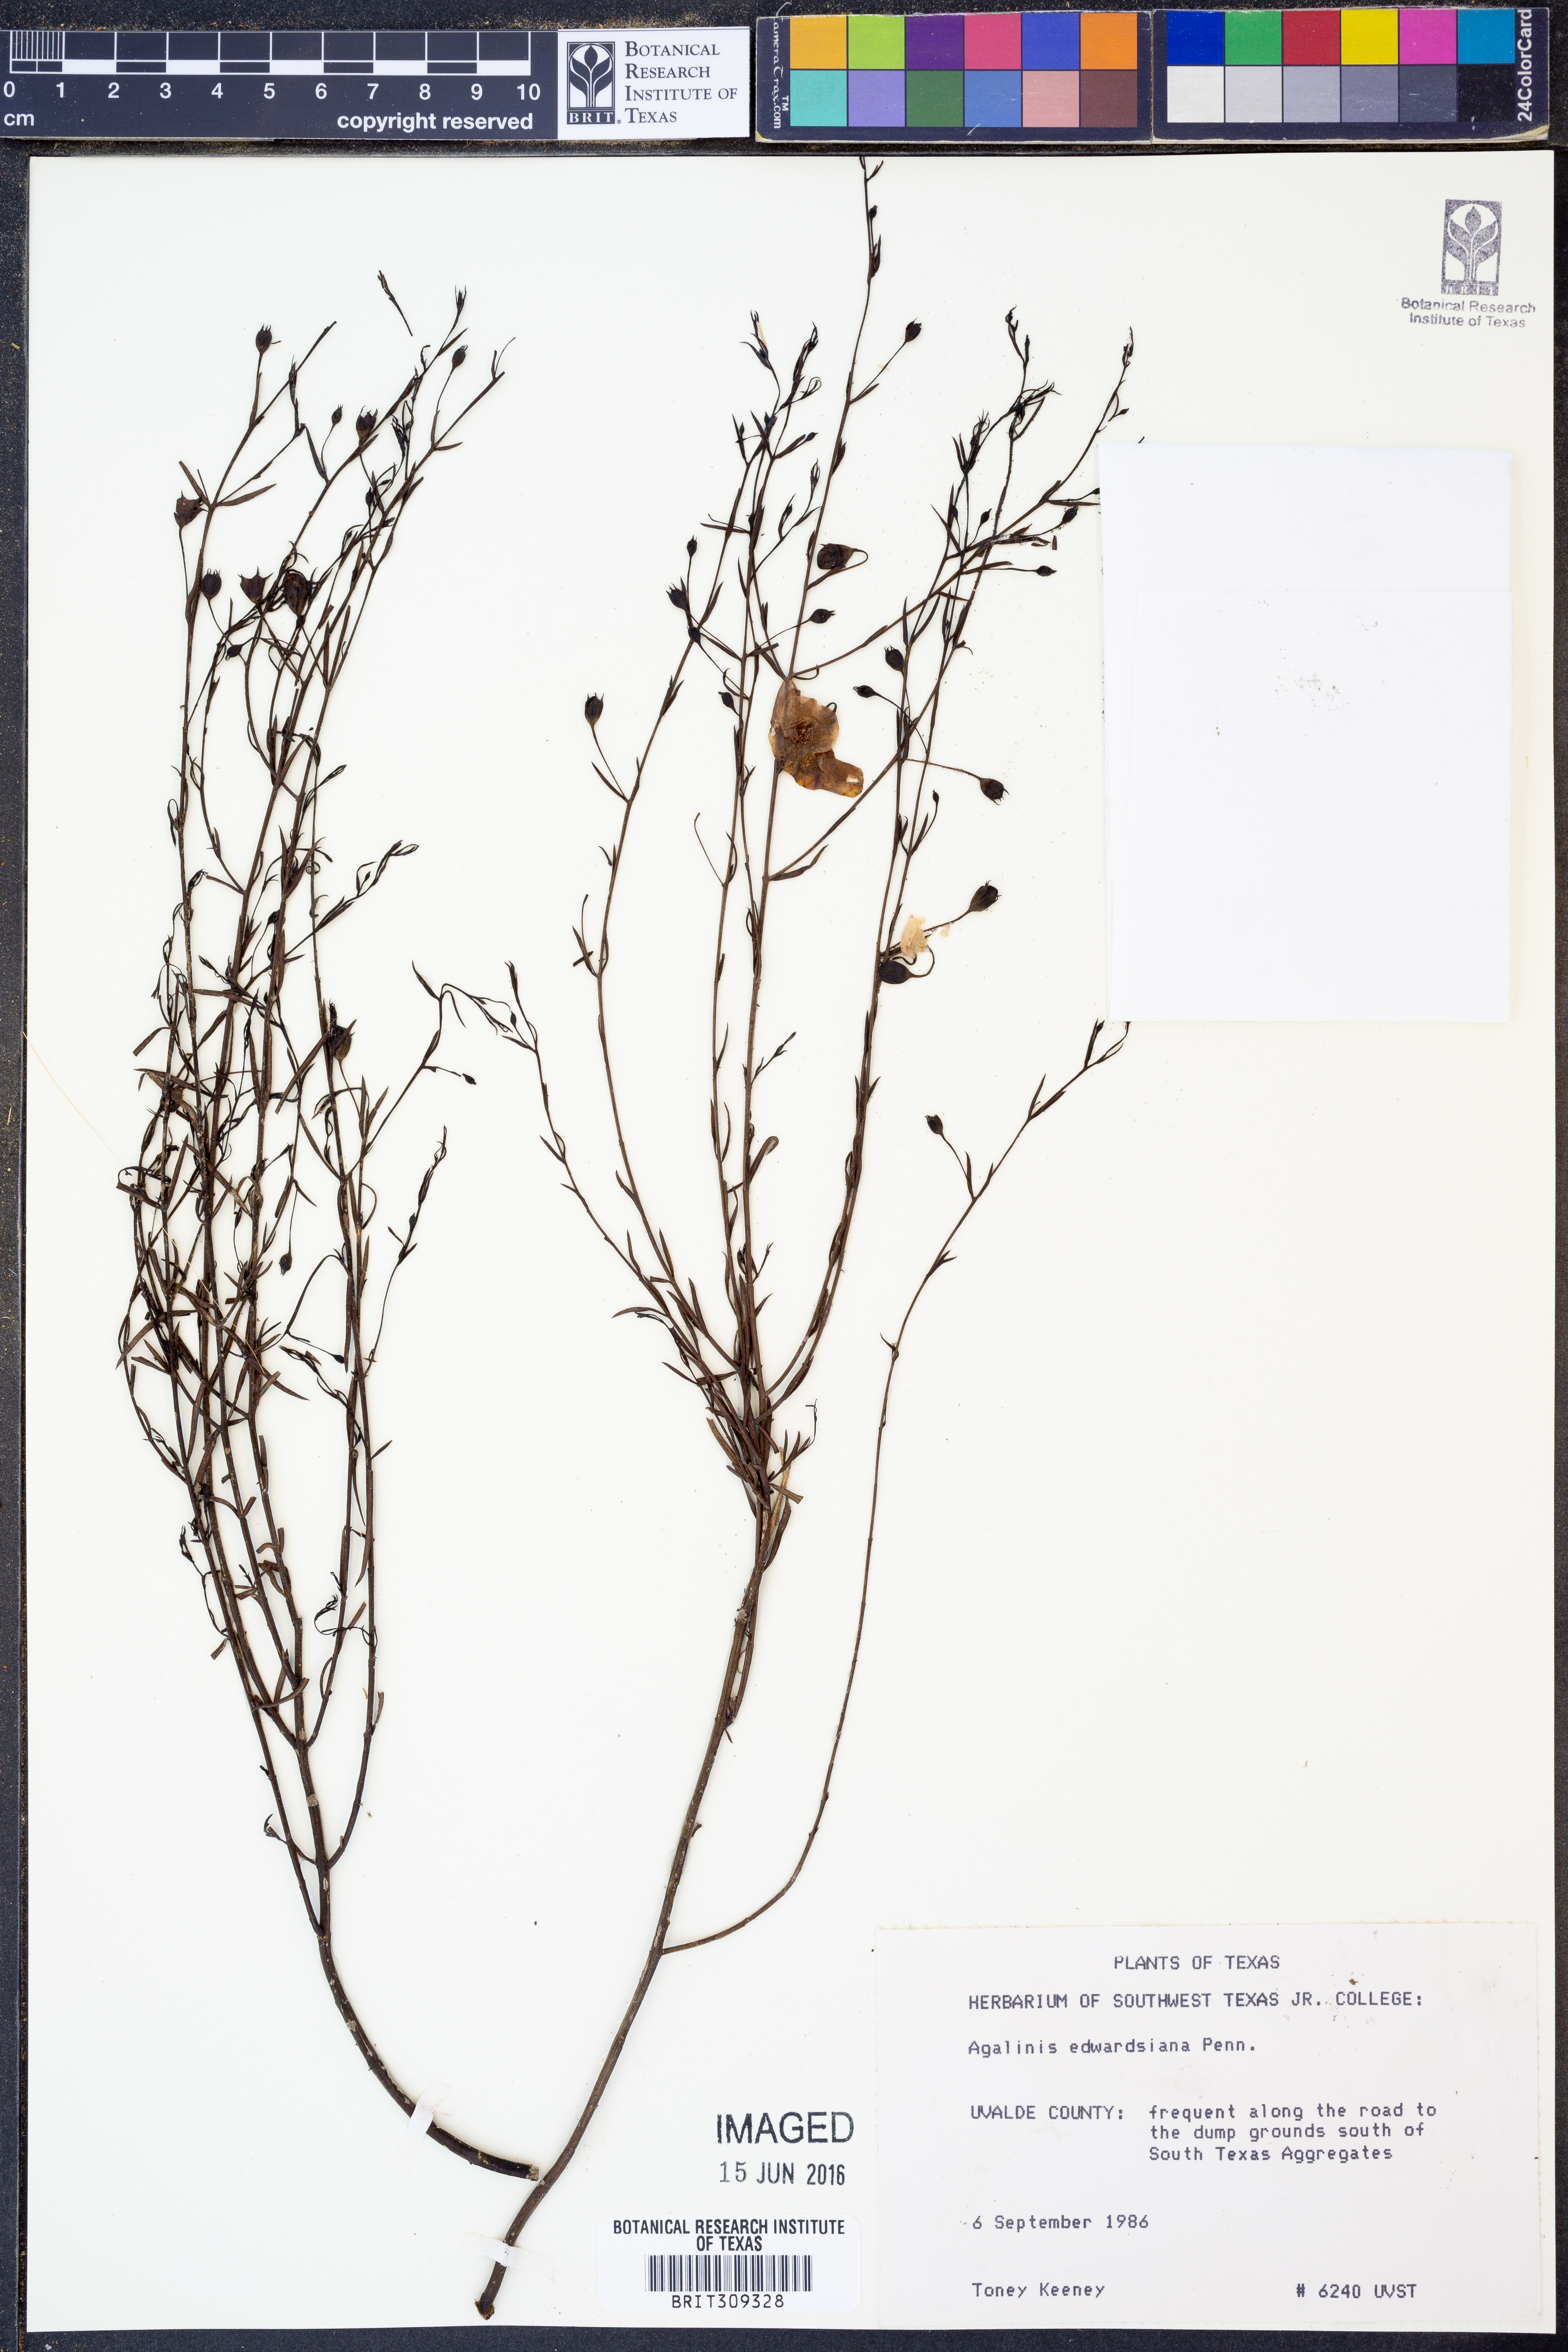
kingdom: Plantae
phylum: Tracheophyta
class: Magnoliopsida
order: Lamiales
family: Orobanchaceae
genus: Agalinis
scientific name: Agalinis edwardsiana
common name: Plateau-gerardia
